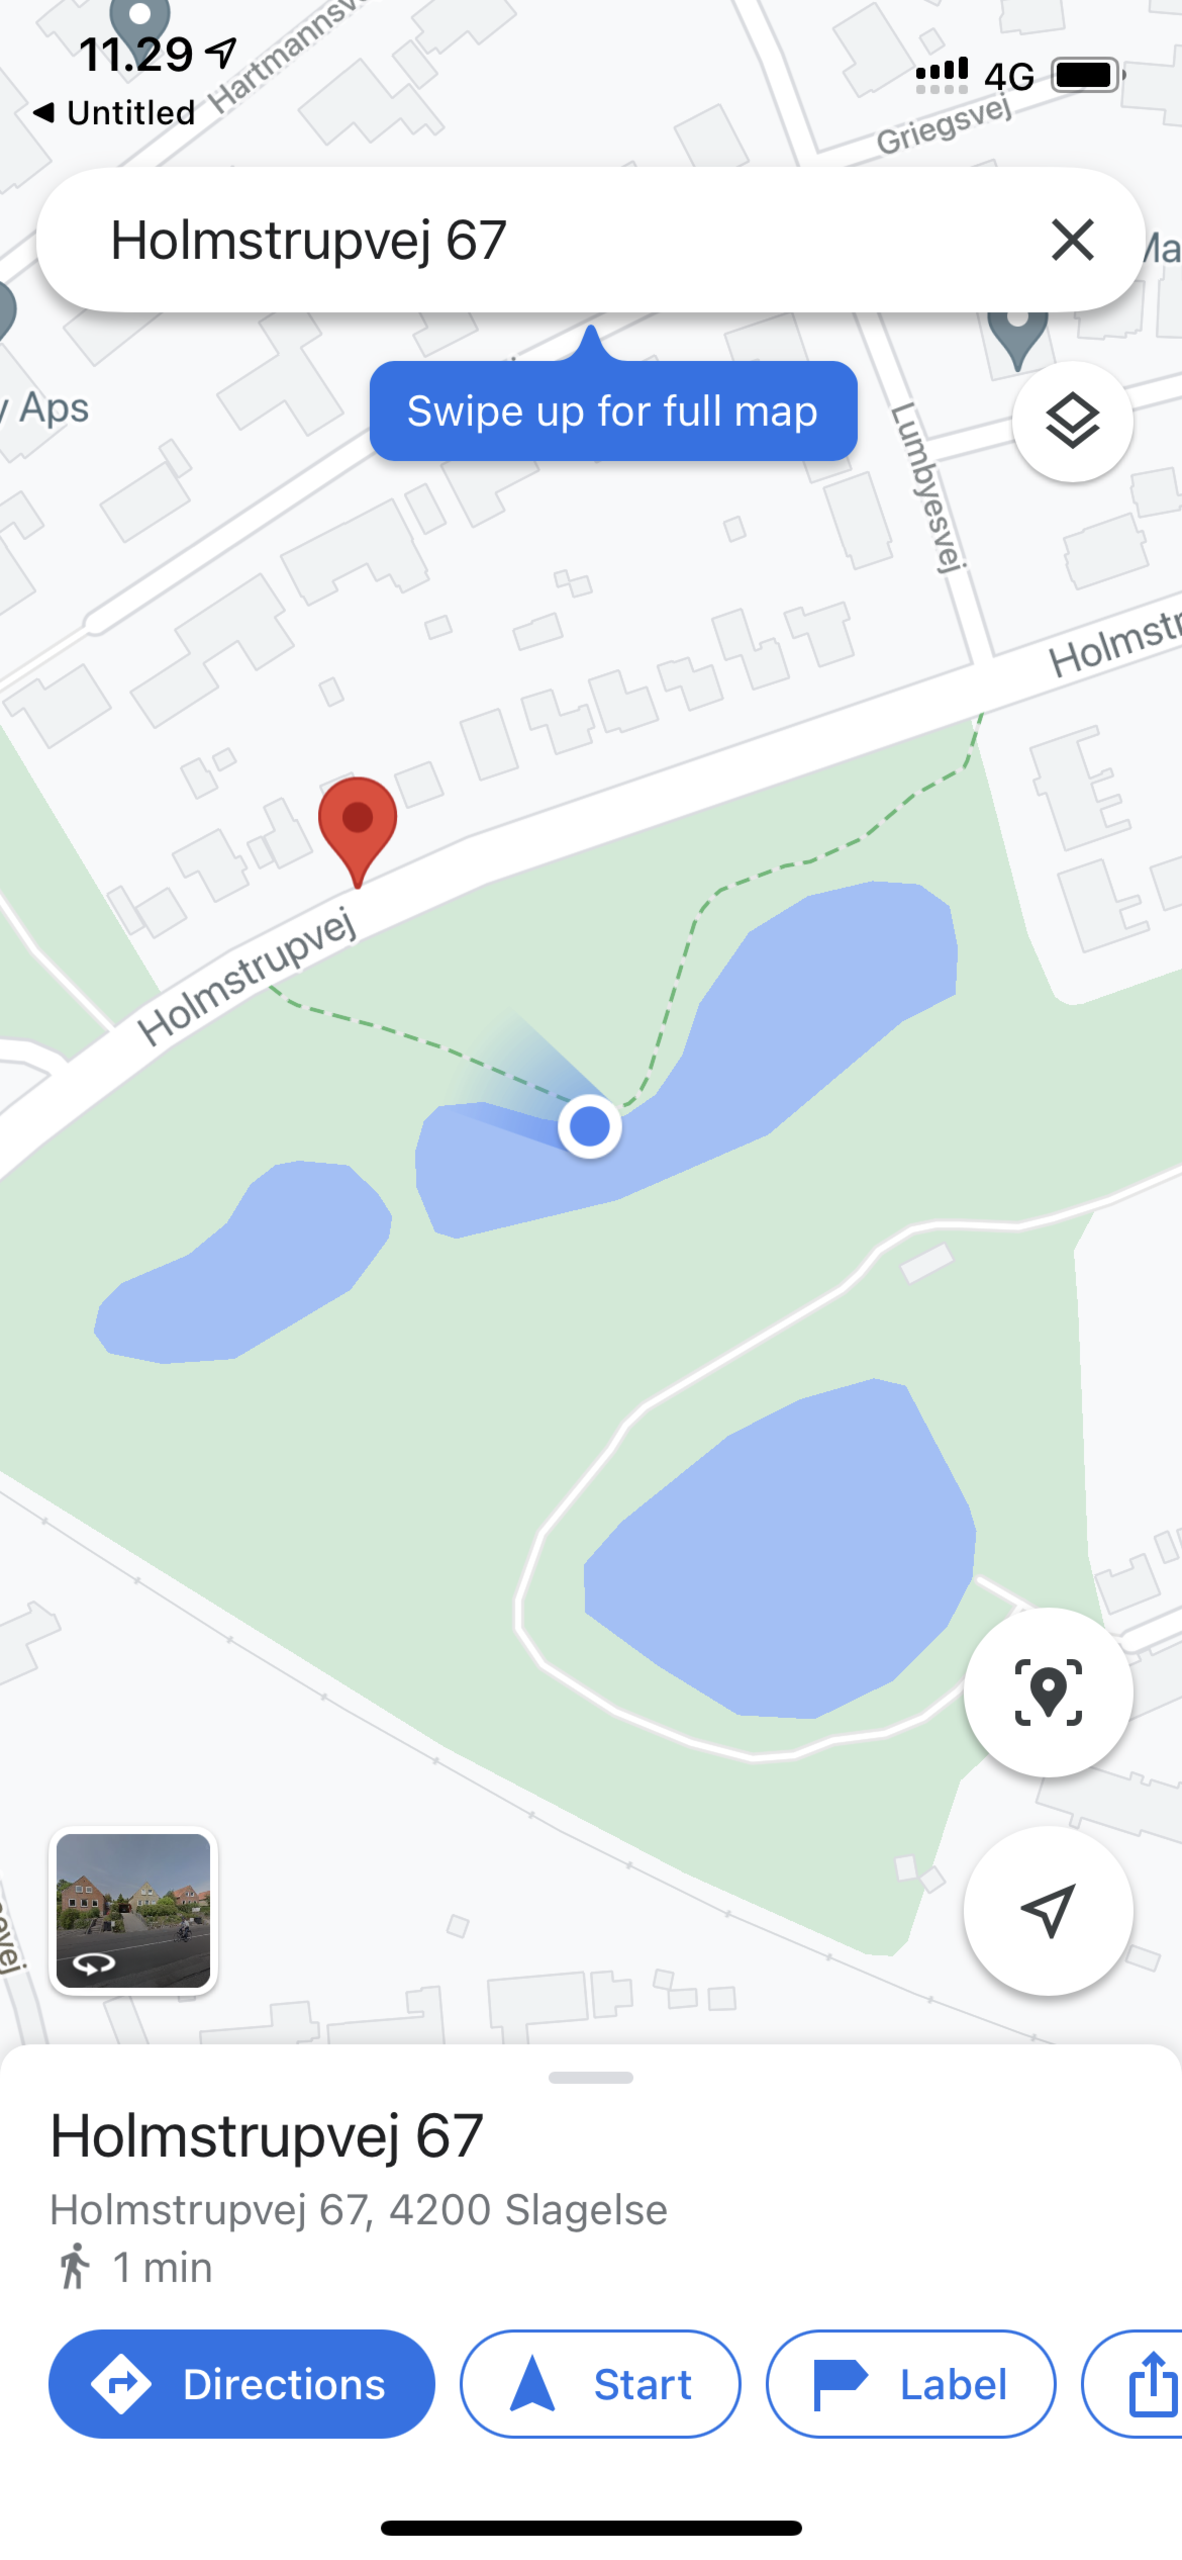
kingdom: Plantae
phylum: Tracheophyta
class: Magnoliopsida
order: Apiales
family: Apiaceae
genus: Heracleum
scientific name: Heracleum mantegazzianum
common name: Kæmpe-bjørneklo
